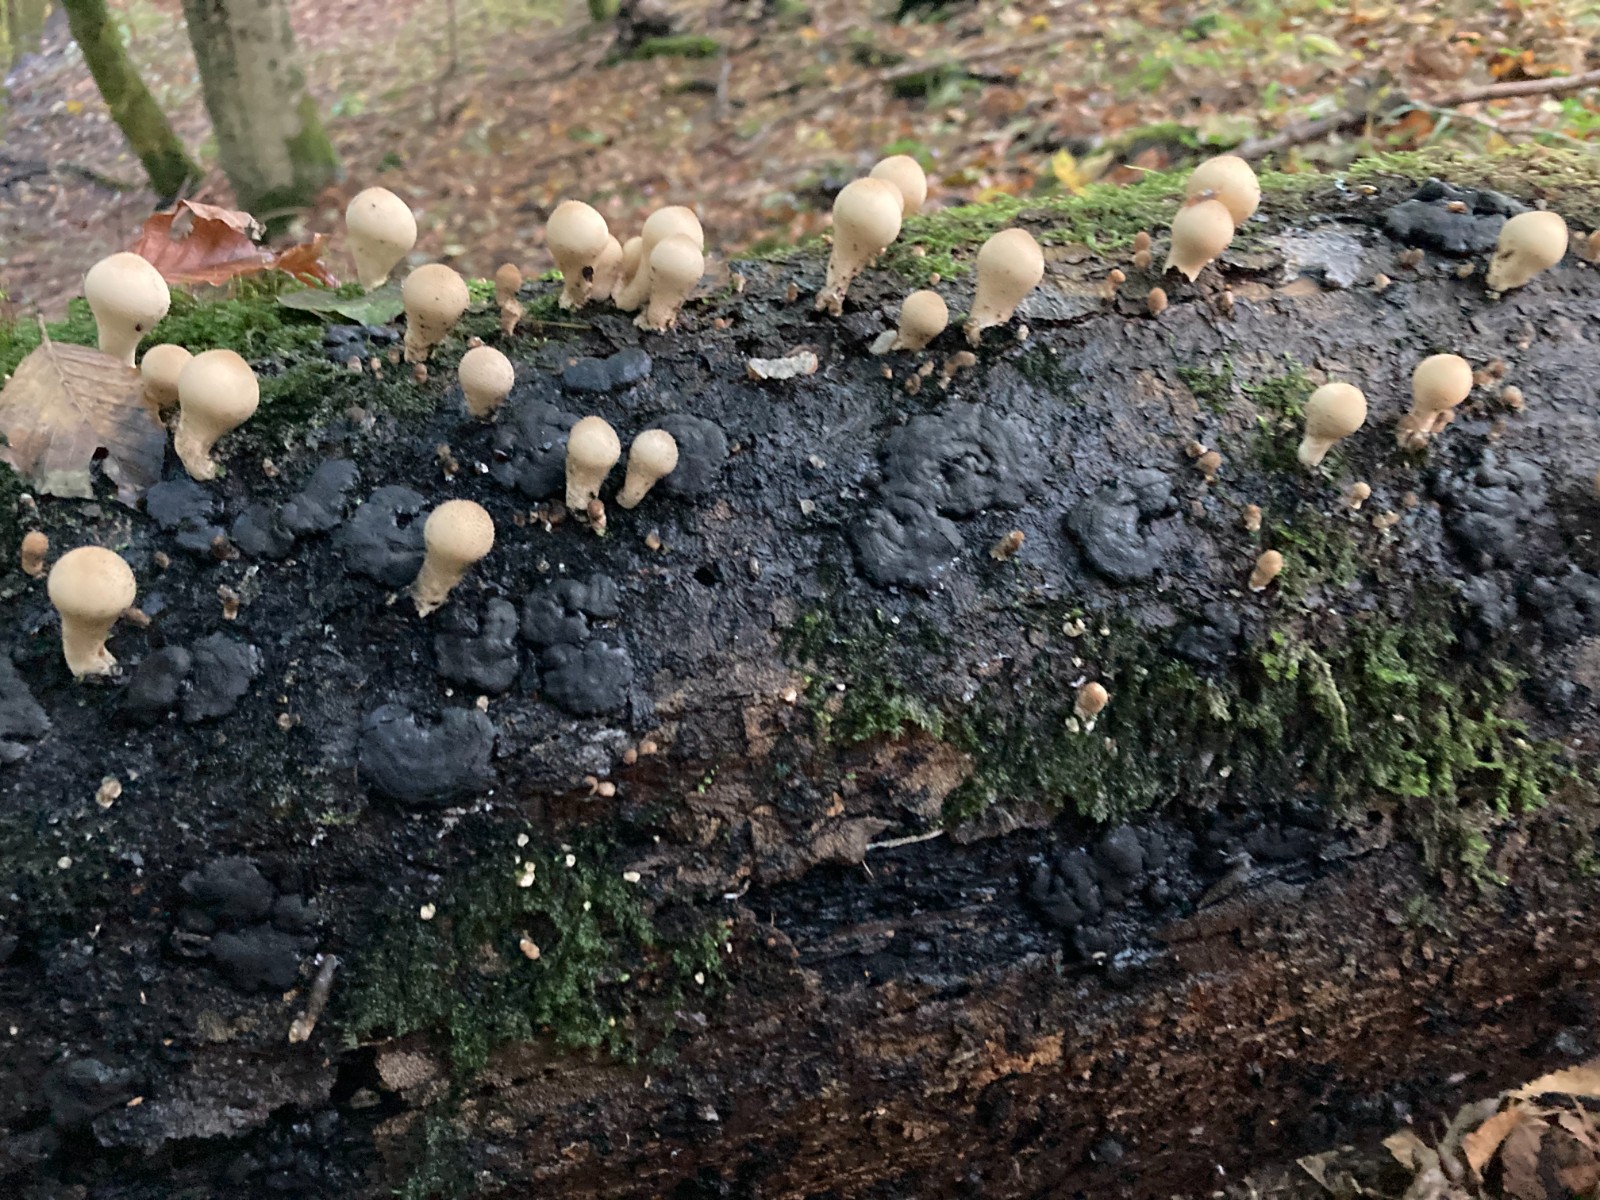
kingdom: Fungi
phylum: Basidiomycota
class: Agaricomycetes
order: Agaricales
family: Lycoperdaceae
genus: Apioperdon
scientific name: Apioperdon pyriforme
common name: pære-støvbold
